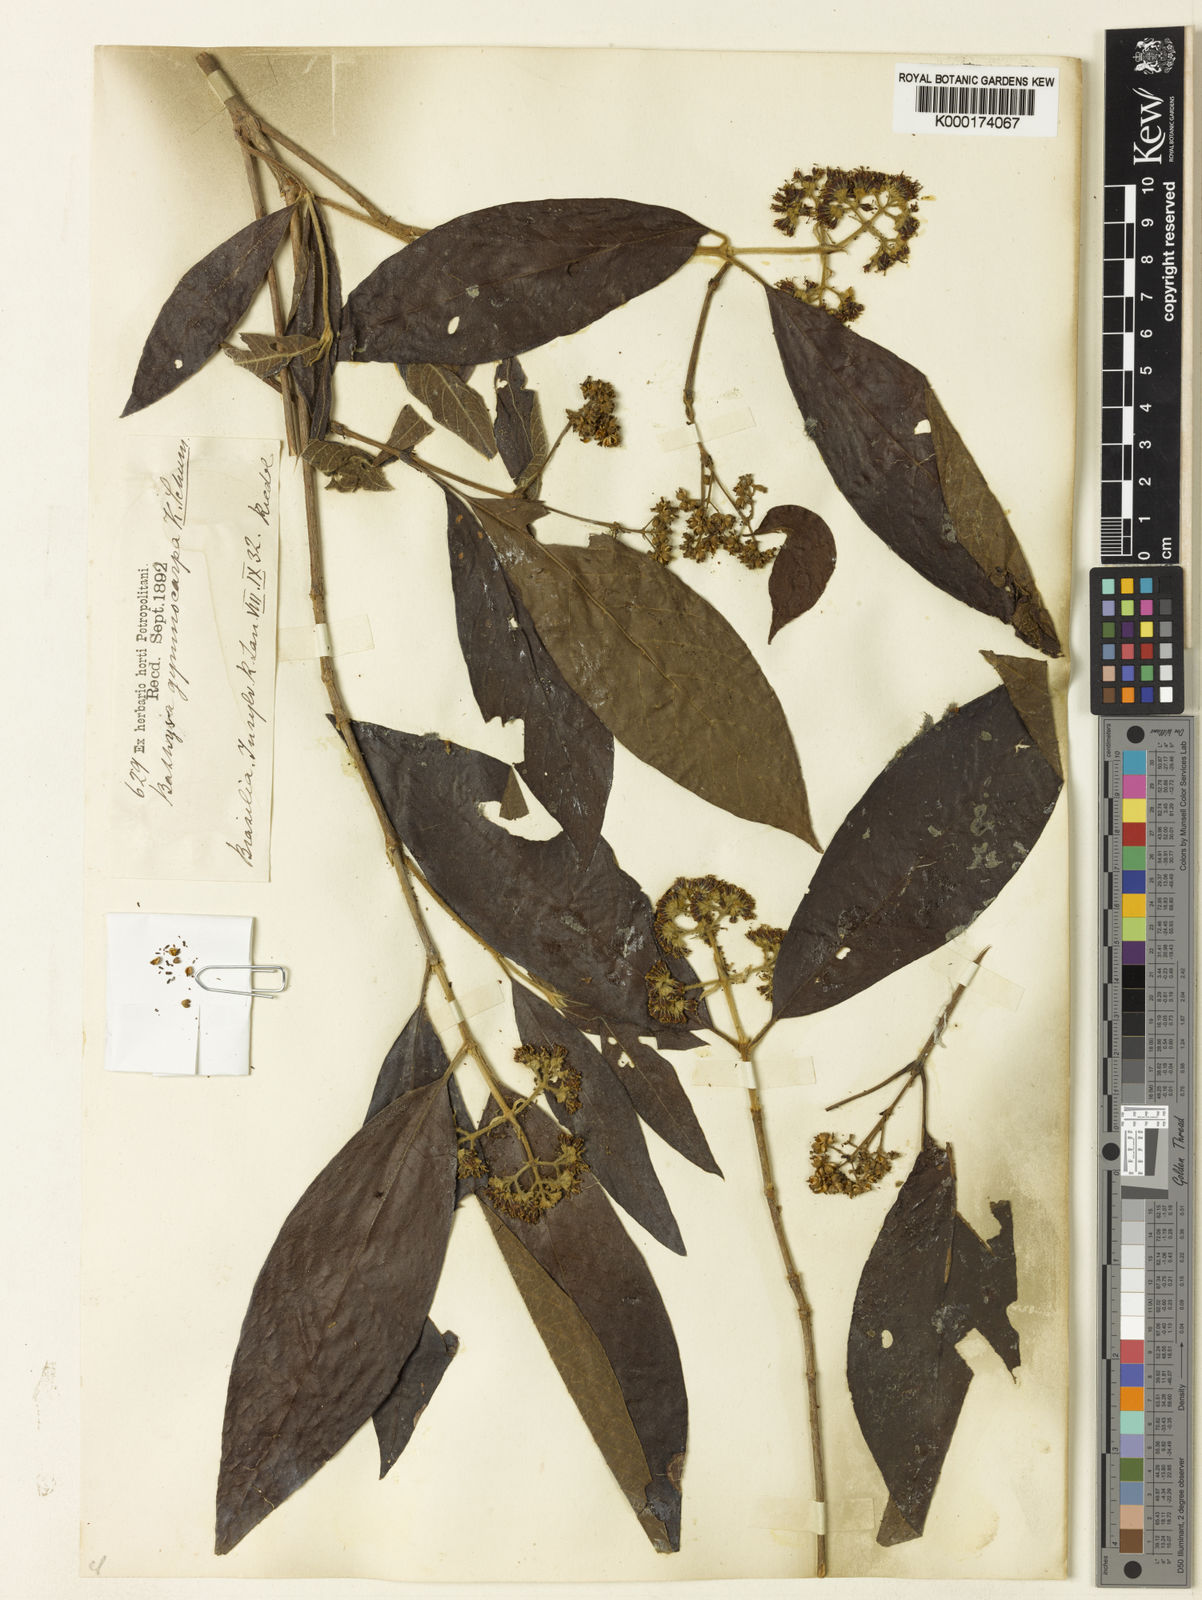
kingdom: Plantae
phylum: Tracheophyta
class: Magnoliopsida
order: Gentianales
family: Rubiaceae
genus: Bathysa
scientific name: Bathysa gymnocarpa
